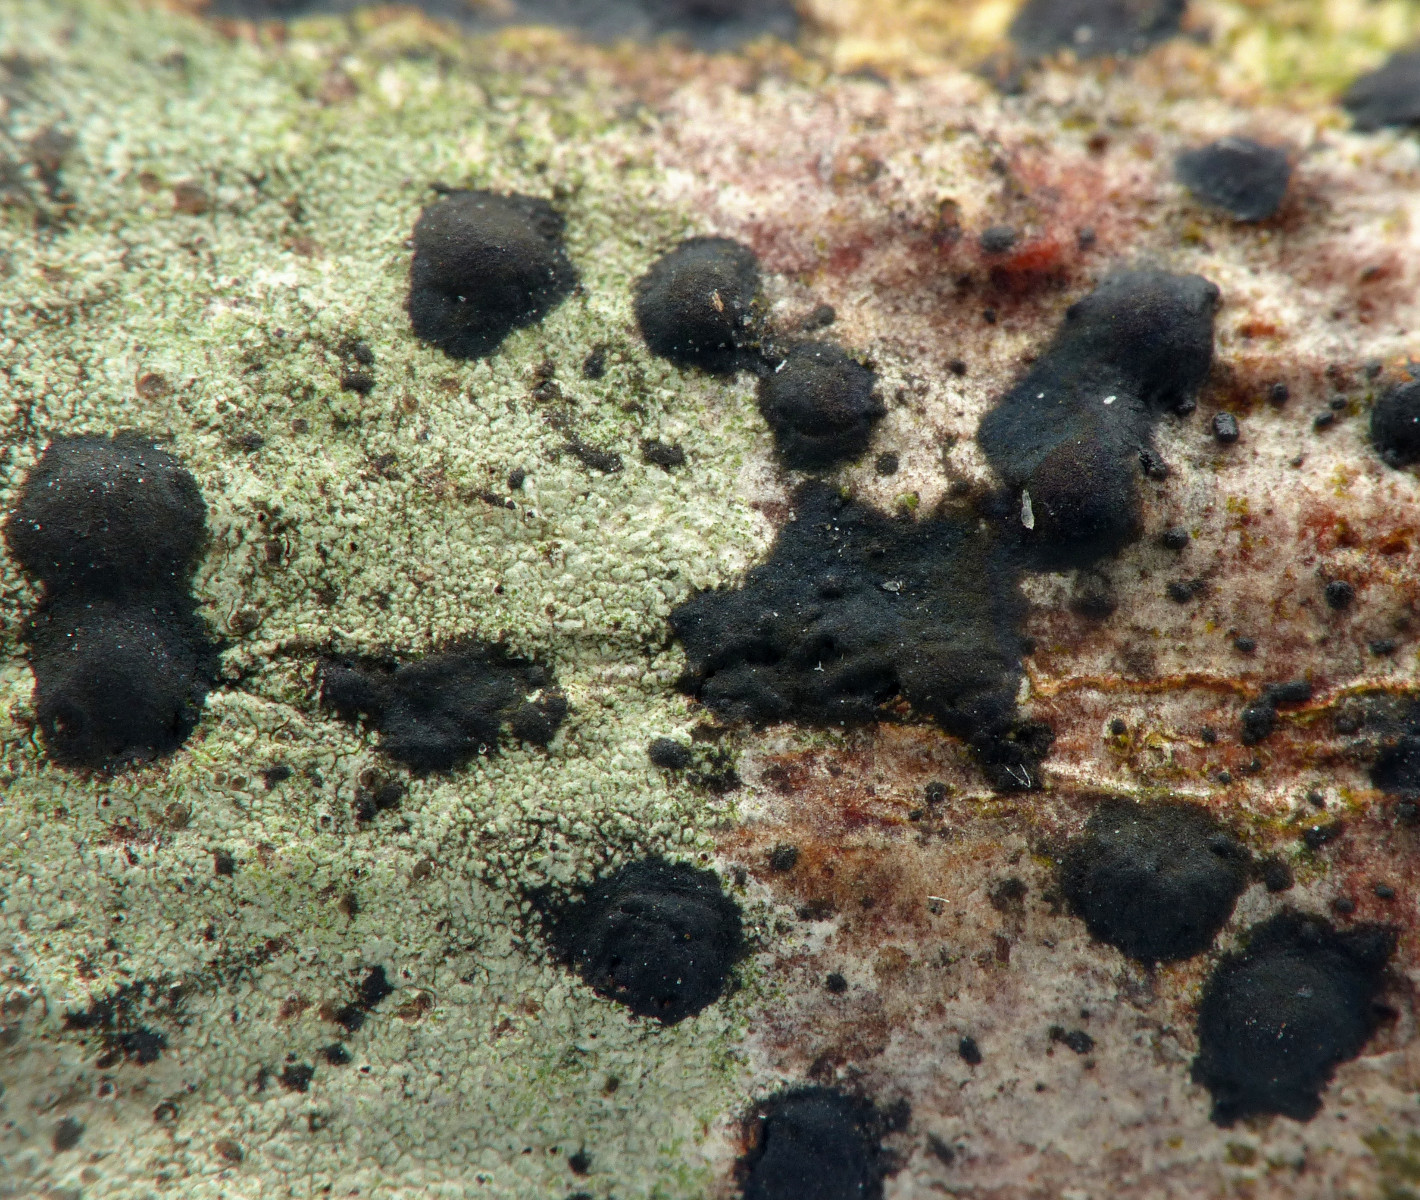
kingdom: Fungi
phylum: Ascomycota
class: Sordariomycetes
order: Diaporthales
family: Juglanconidaceae
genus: Juglanconis
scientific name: Juglanconis pterocaryae
